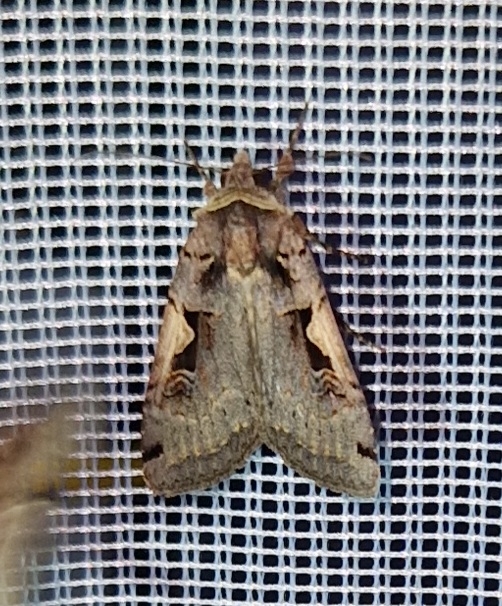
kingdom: Animalia
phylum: Arthropoda
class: Insecta
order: Lepidoptera
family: Noctuidae
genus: Xestia
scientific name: Xestia c-nigrum
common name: Det sorte c
